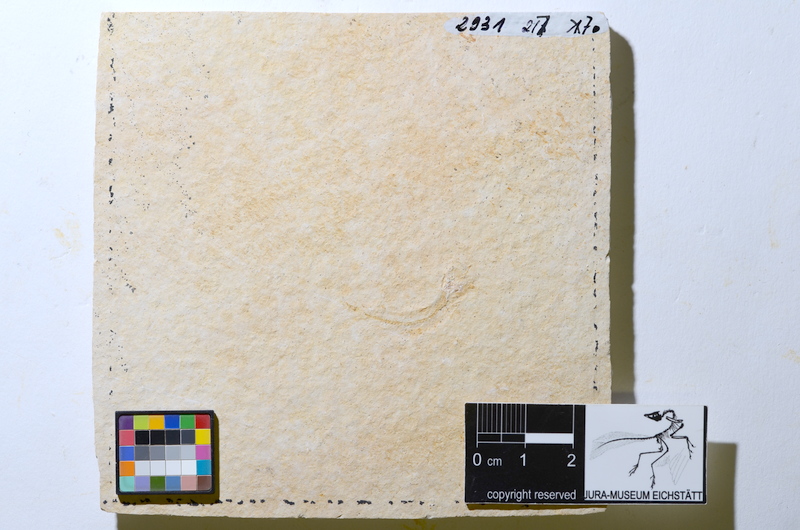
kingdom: Animalia
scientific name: Animalia
